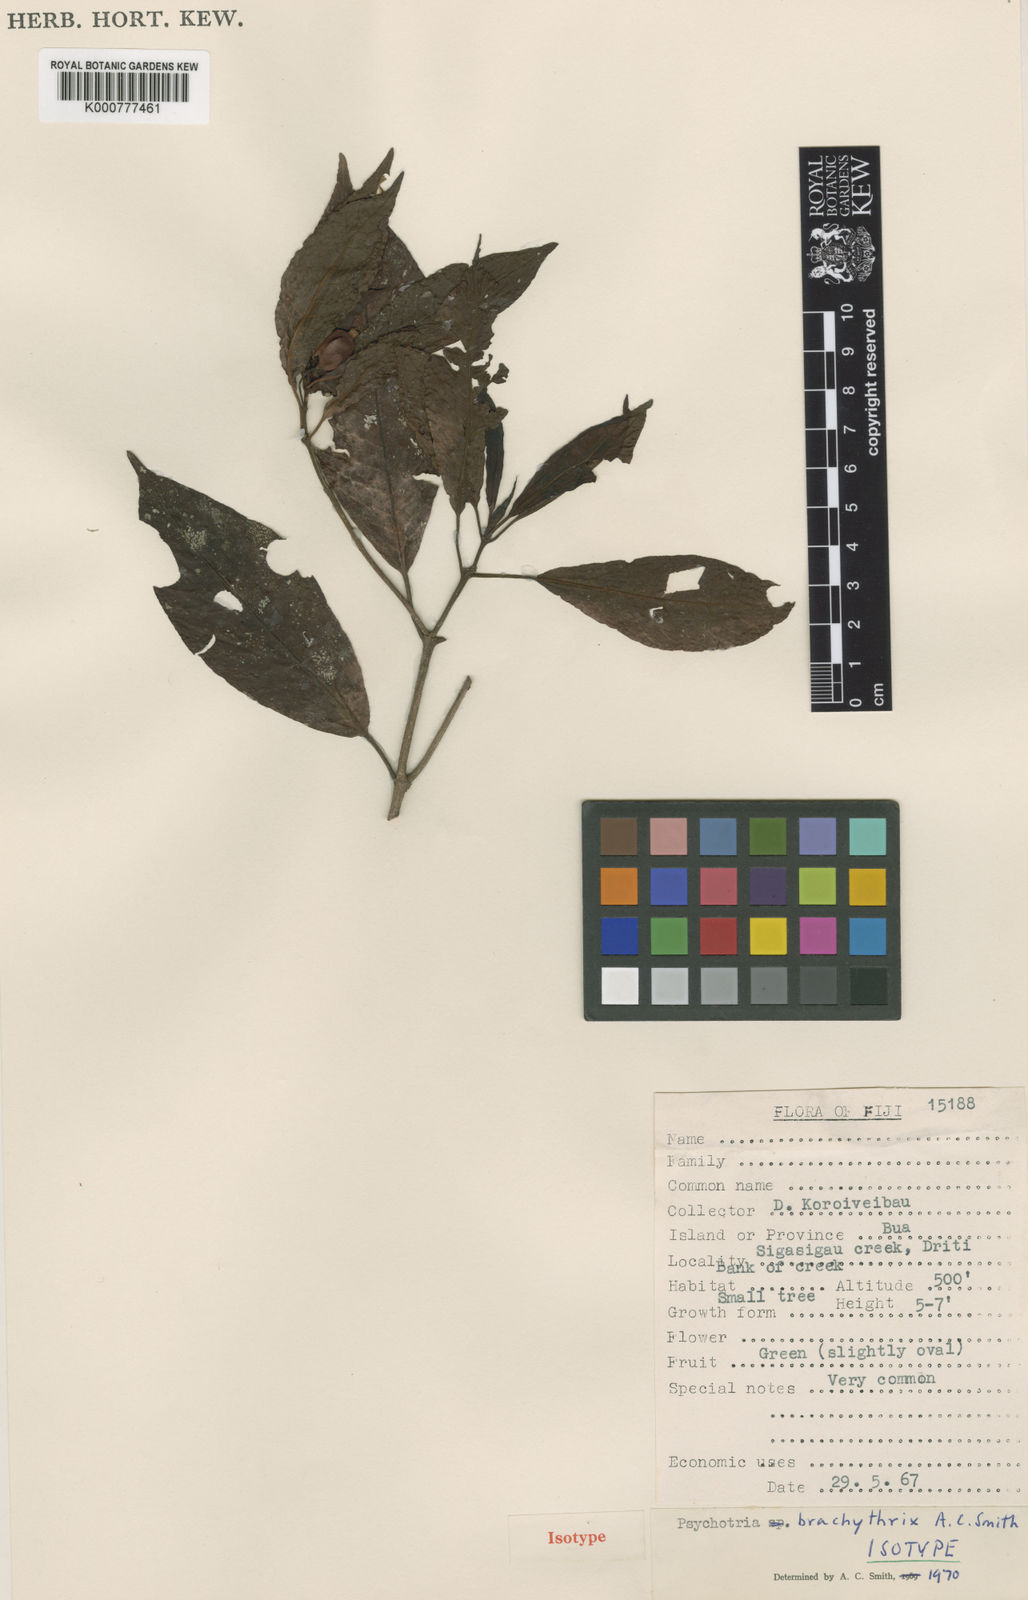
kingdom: Plantae
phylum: Tracheophyta
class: Magnoliopsida
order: Gentianales
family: Rubiaceae
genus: Psychotria
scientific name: Psychotria brachythrix
